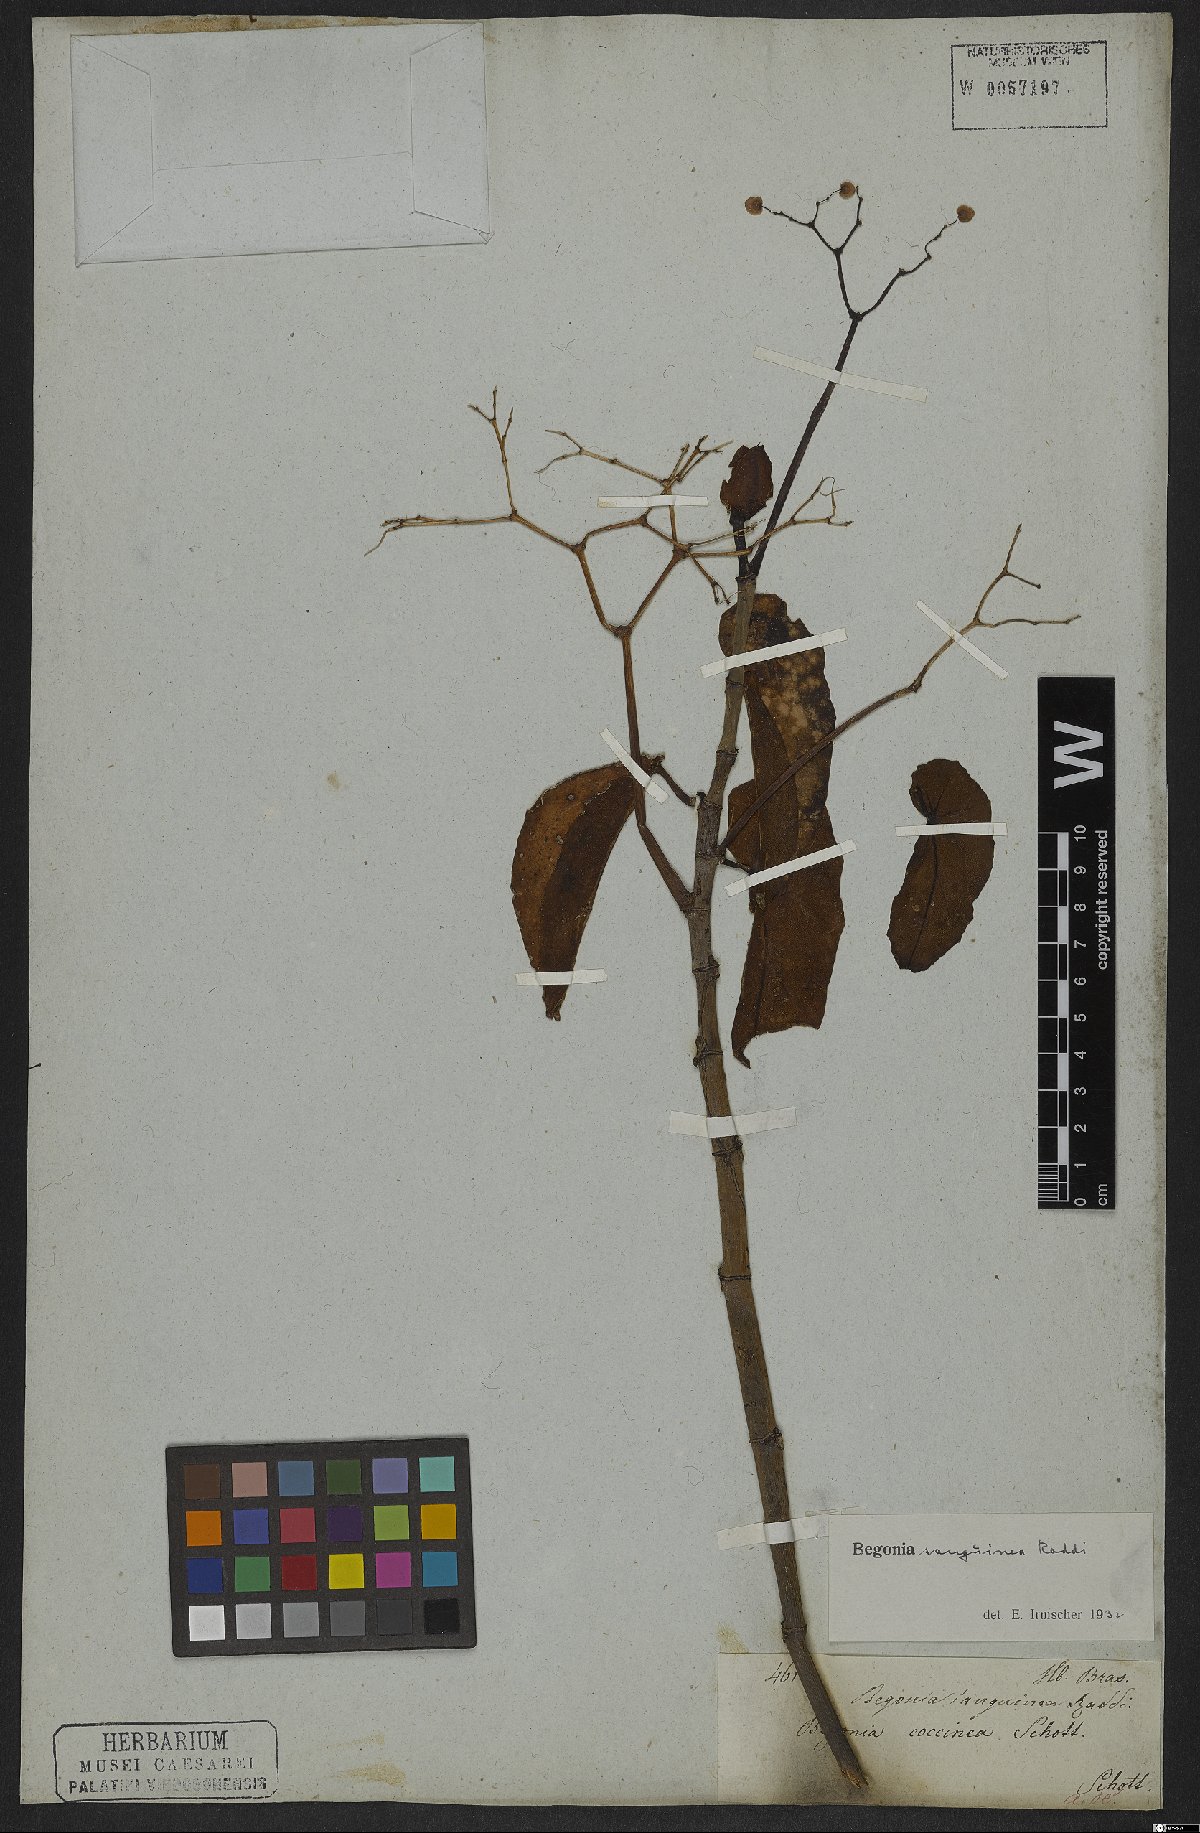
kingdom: Plantae
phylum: Tracheophyta
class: Magnoliopsida
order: Cucurbitales
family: Begoniaceae
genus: Begonia
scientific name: Begonia sanguinea
